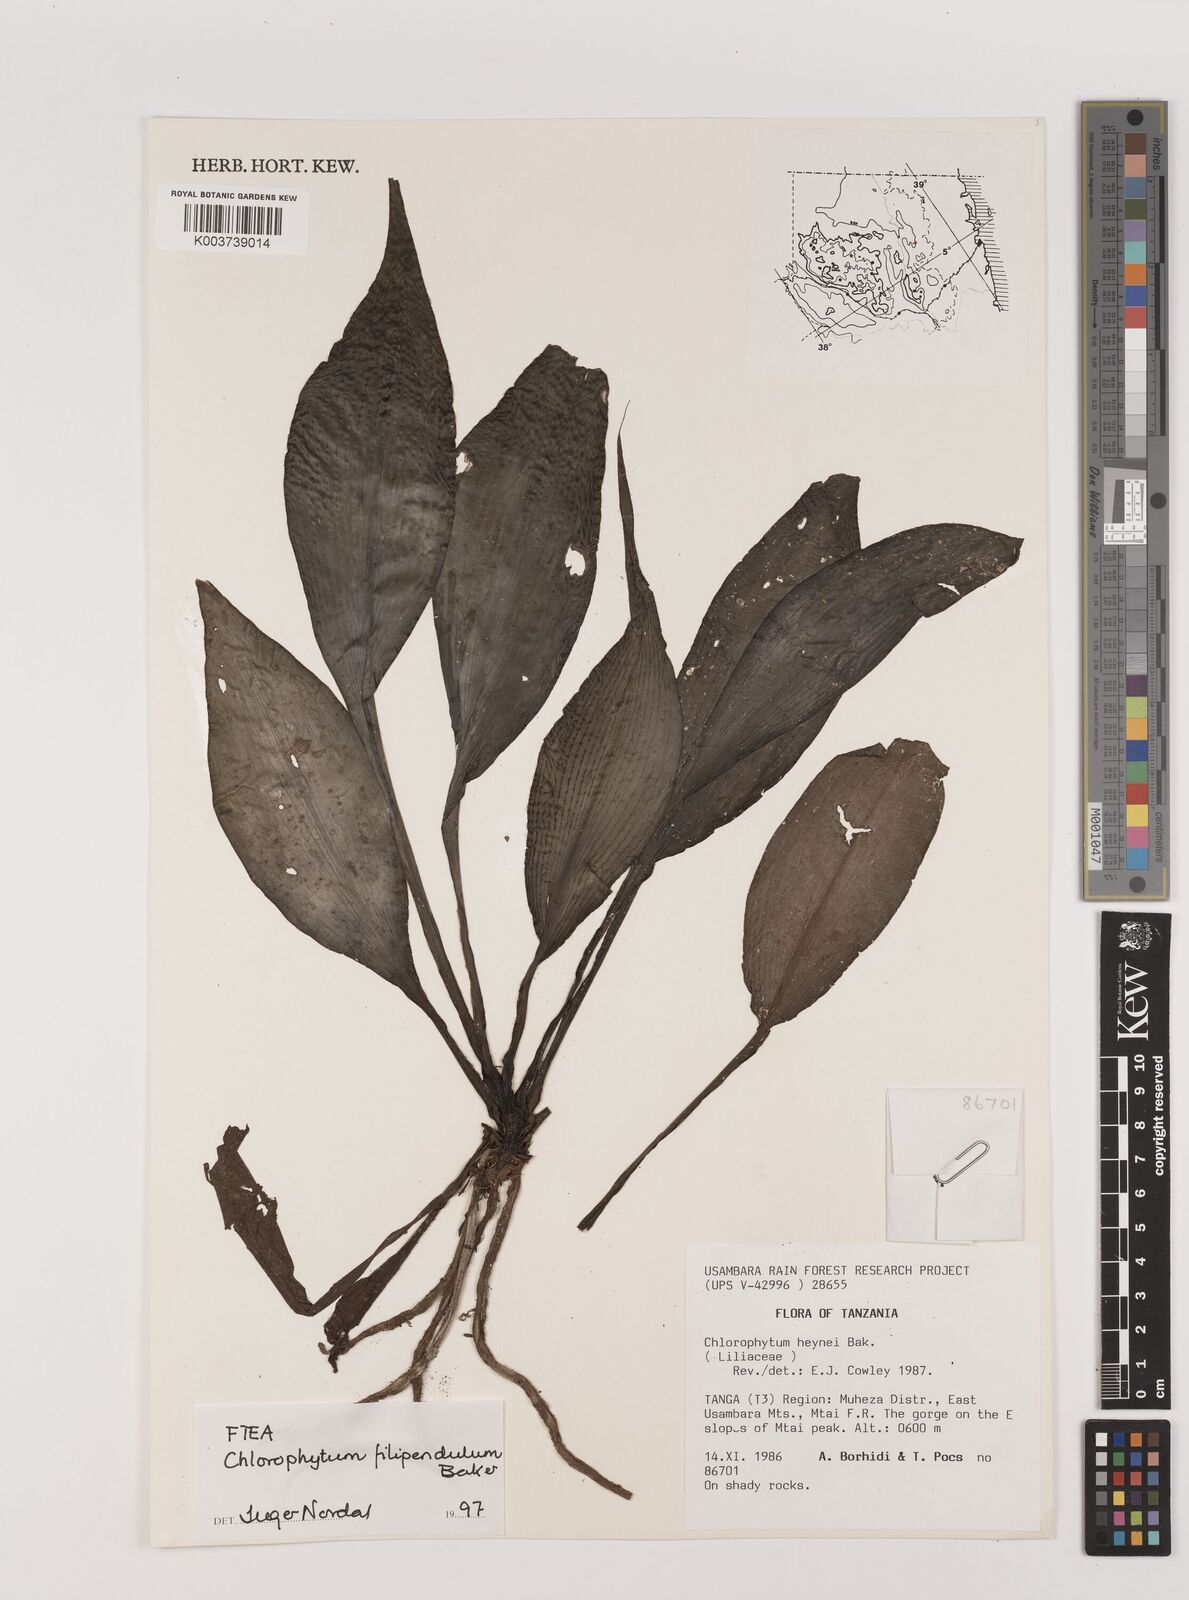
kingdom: Plantae
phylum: Tracheophyta
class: Liliopsida
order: Asparagales
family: Asparagaceae
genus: Chlorophytum
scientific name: Chlorophytum filipendulum
